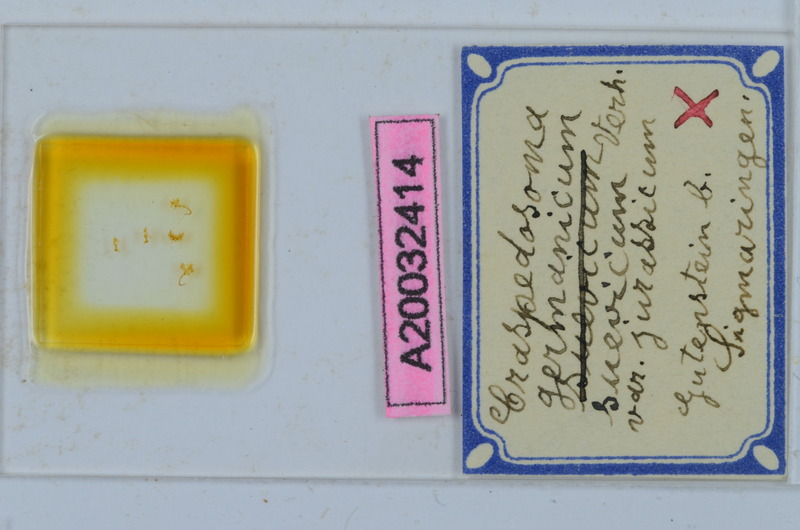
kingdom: Animalia
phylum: Arthropoda
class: Diplopoda
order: Chordeumatida
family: Craspedosomatidae
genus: Craspedosoma
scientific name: Craspedosoma rawlinsii
